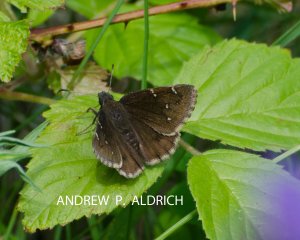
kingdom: Animalia
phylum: Arthropoda
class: Insecta
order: Lepidoptera
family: Hesperiidae
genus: Autochton
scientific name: Autochton
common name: Northern Cloudywing
